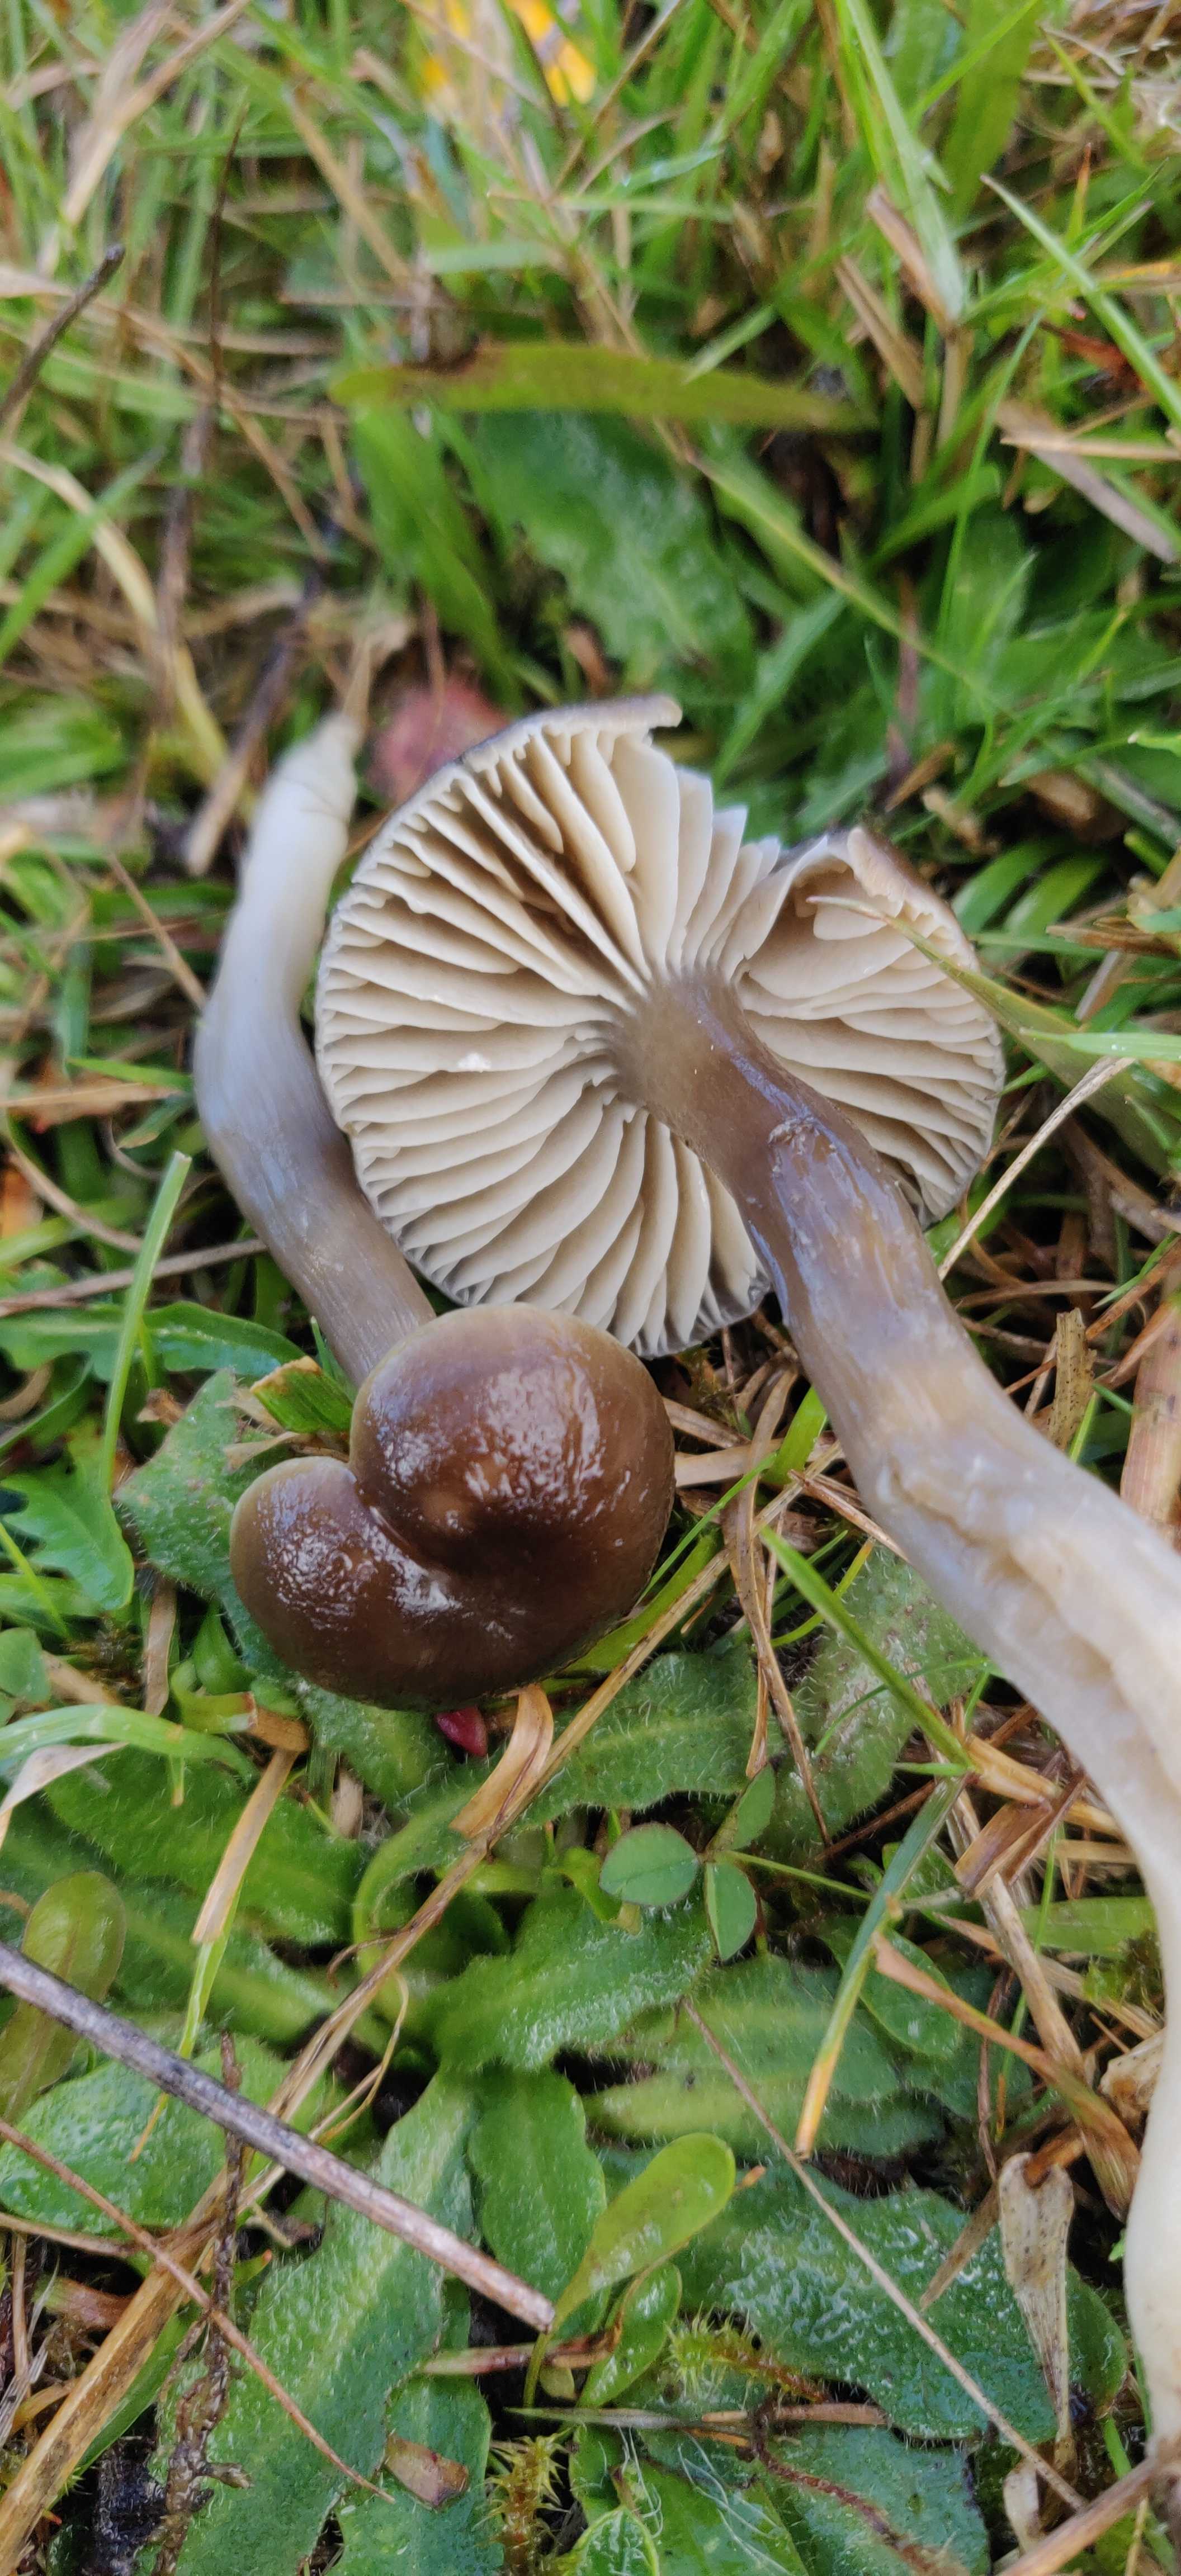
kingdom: Fungi
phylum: Basidiomycota
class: Agaricomycetes
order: Agaricales
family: Hygrophoraceae
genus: Gliophorus
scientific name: Gliophorus irrigatus
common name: slimet vokshat
